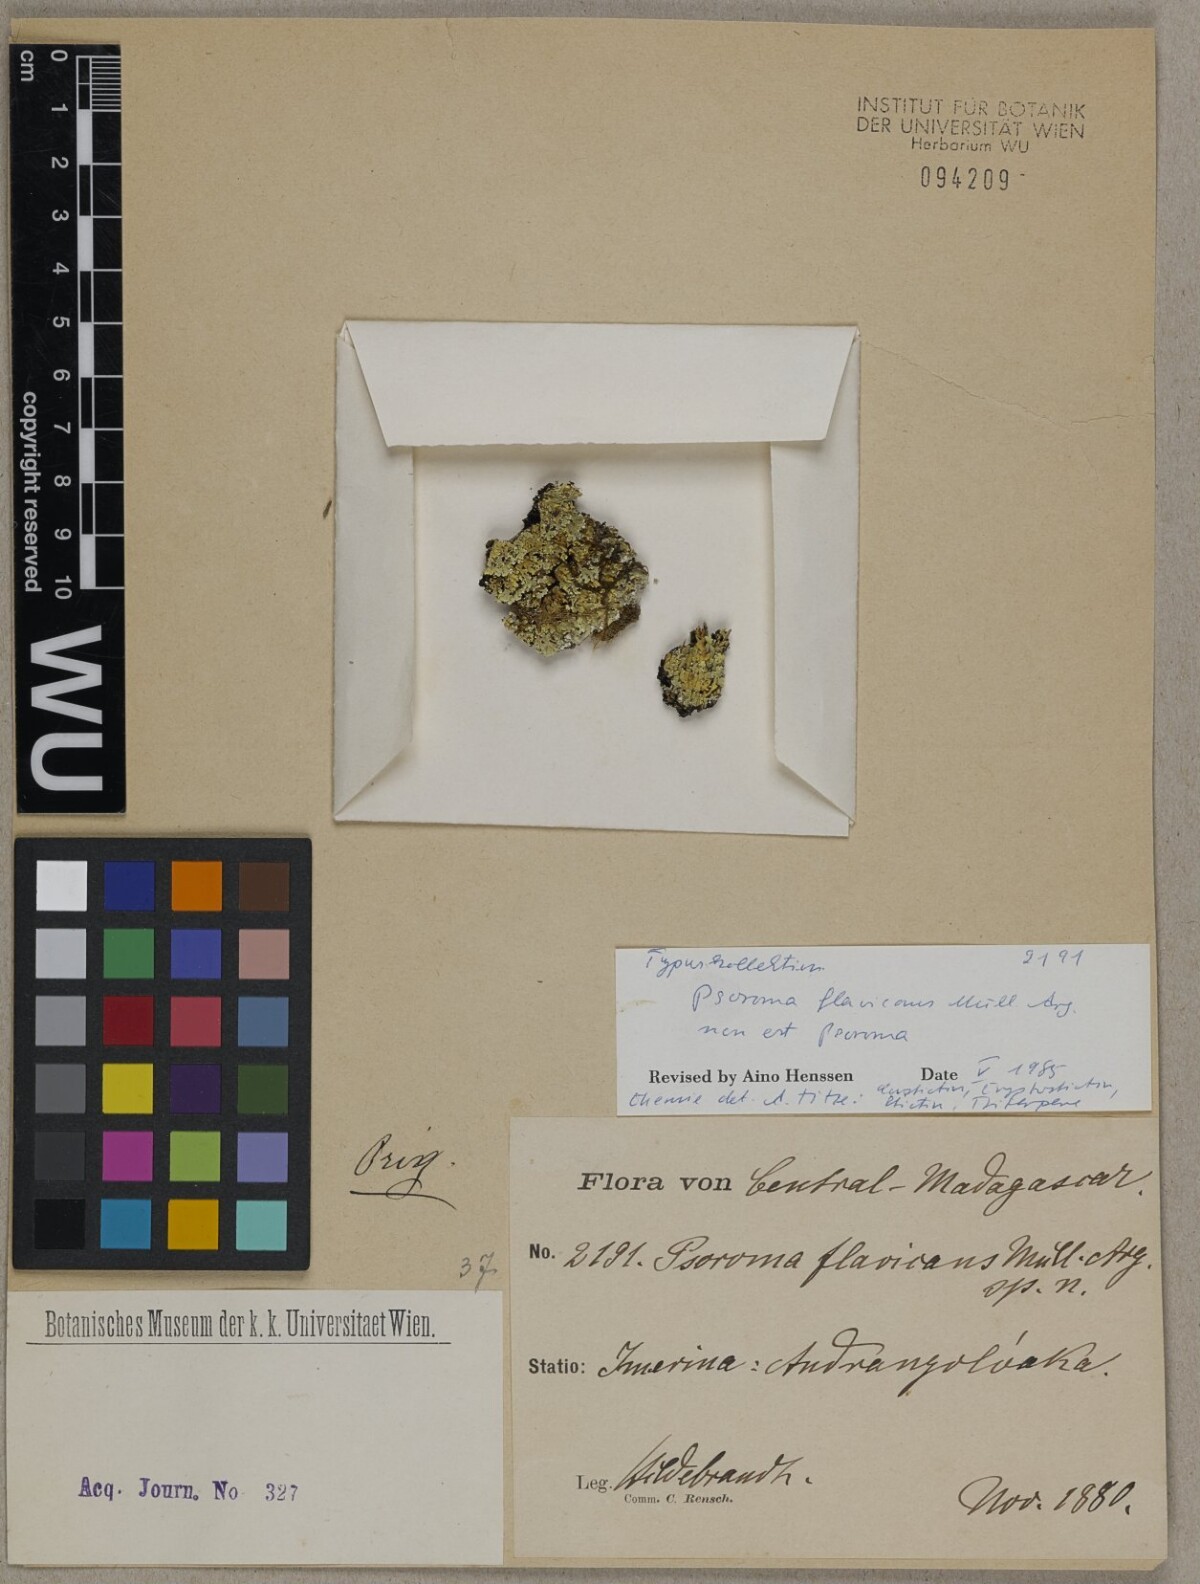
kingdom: Fungi
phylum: Ascomycota
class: Lecanoromycetes
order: Peltigerales
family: Pannariaceae
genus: Psoroma
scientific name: Psoroma
